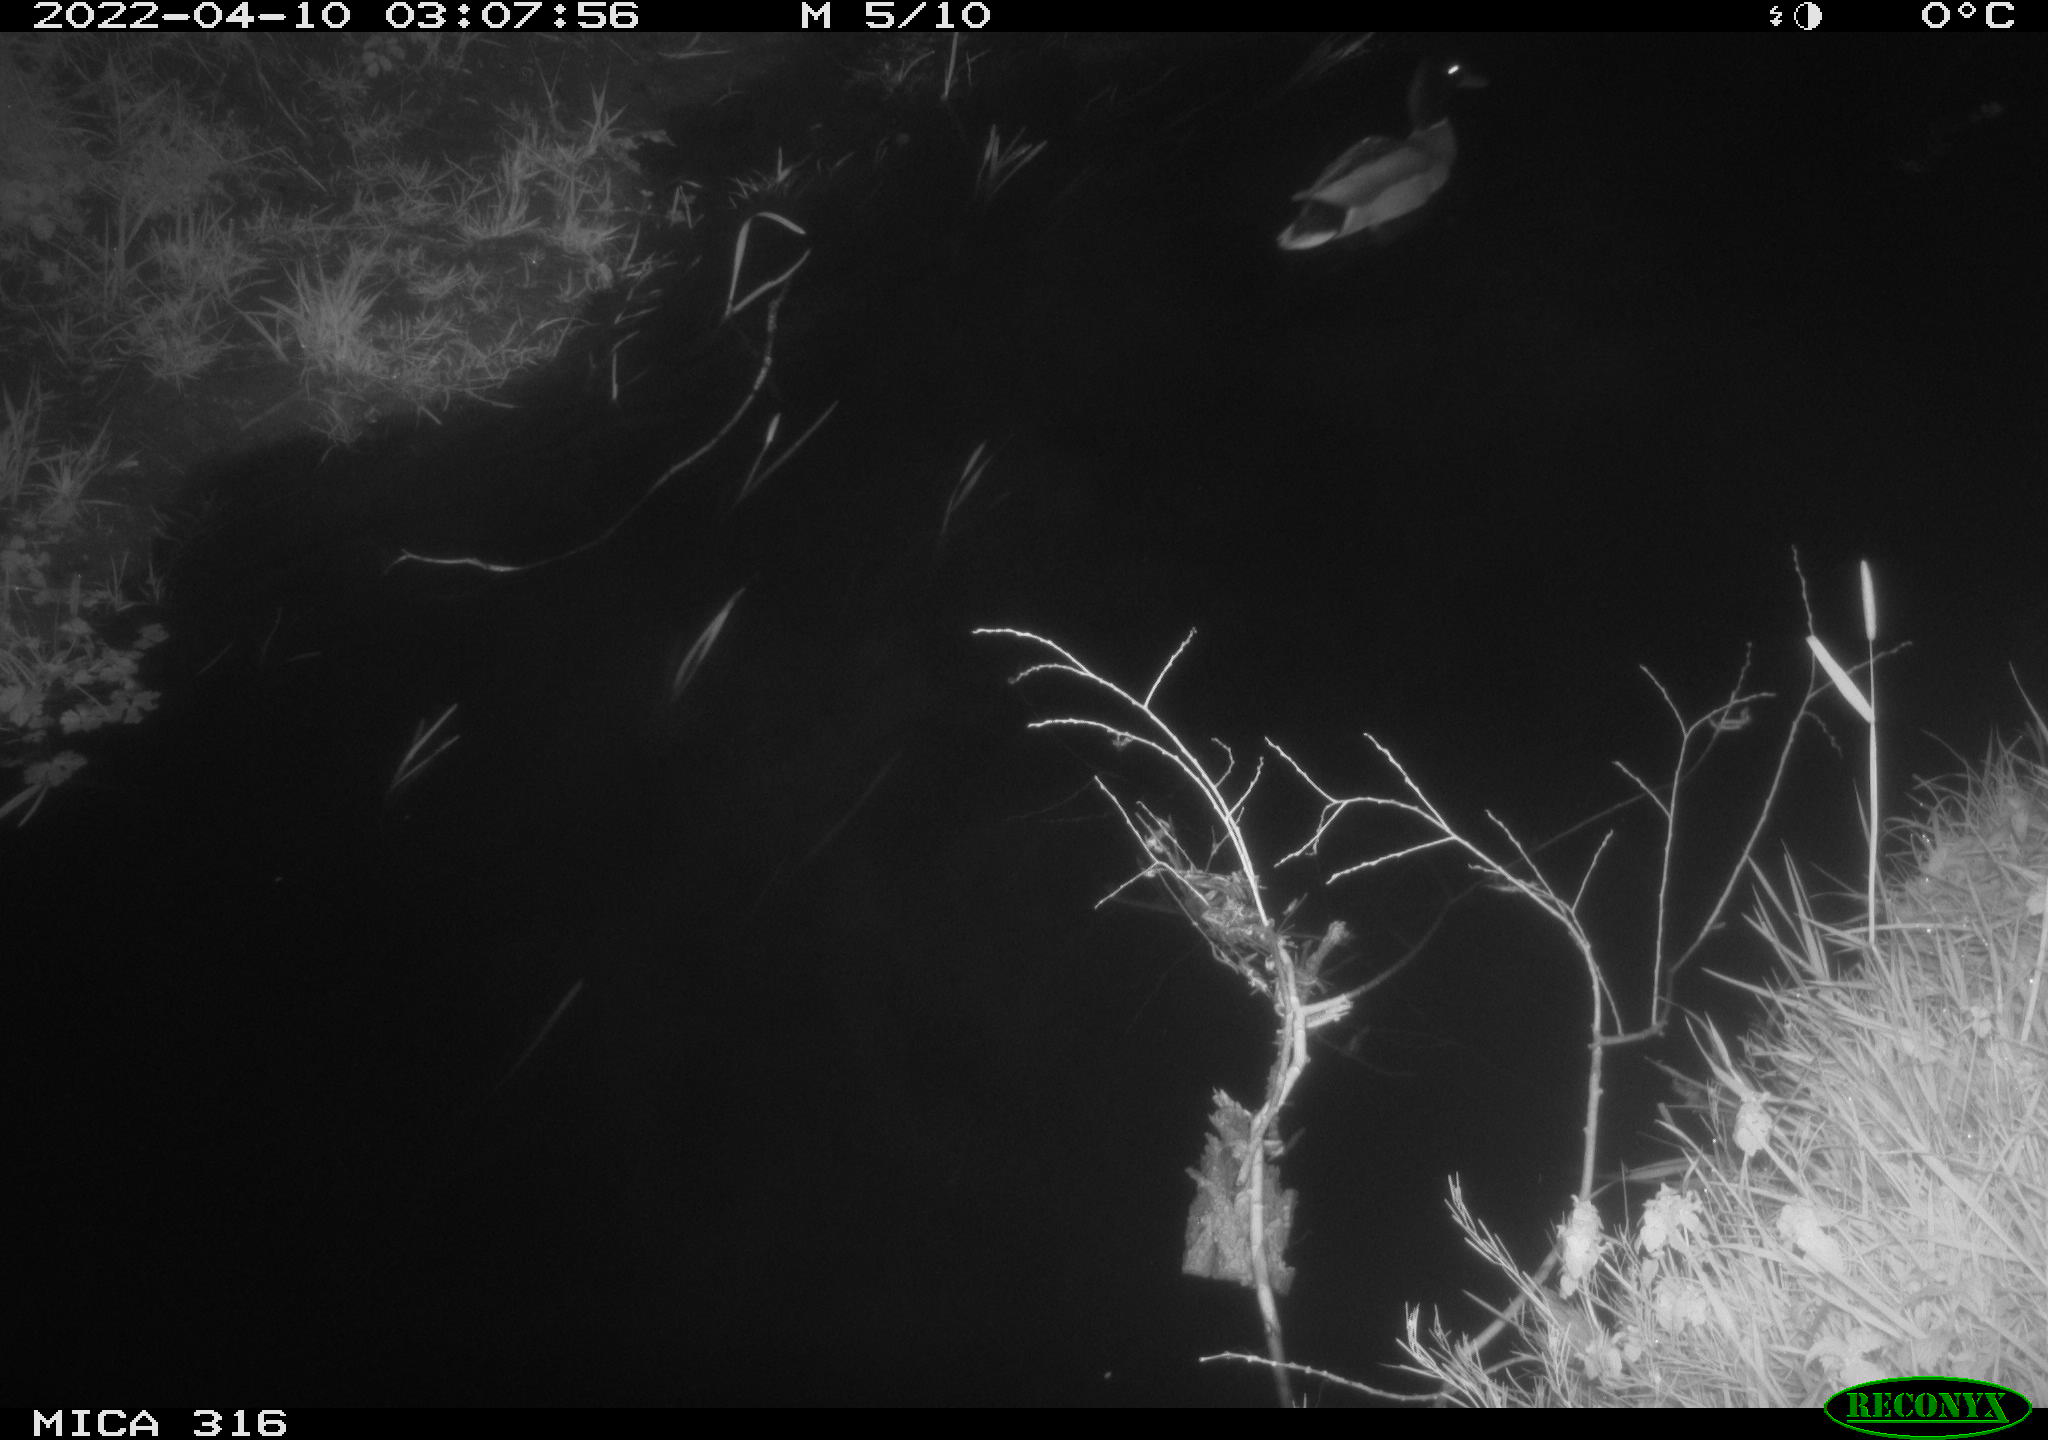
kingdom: Animalia
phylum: Chordata
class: Aves
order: Anseriformes
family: Anatidae
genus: Anas
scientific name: Anas platyrhynchos
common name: Mallard
